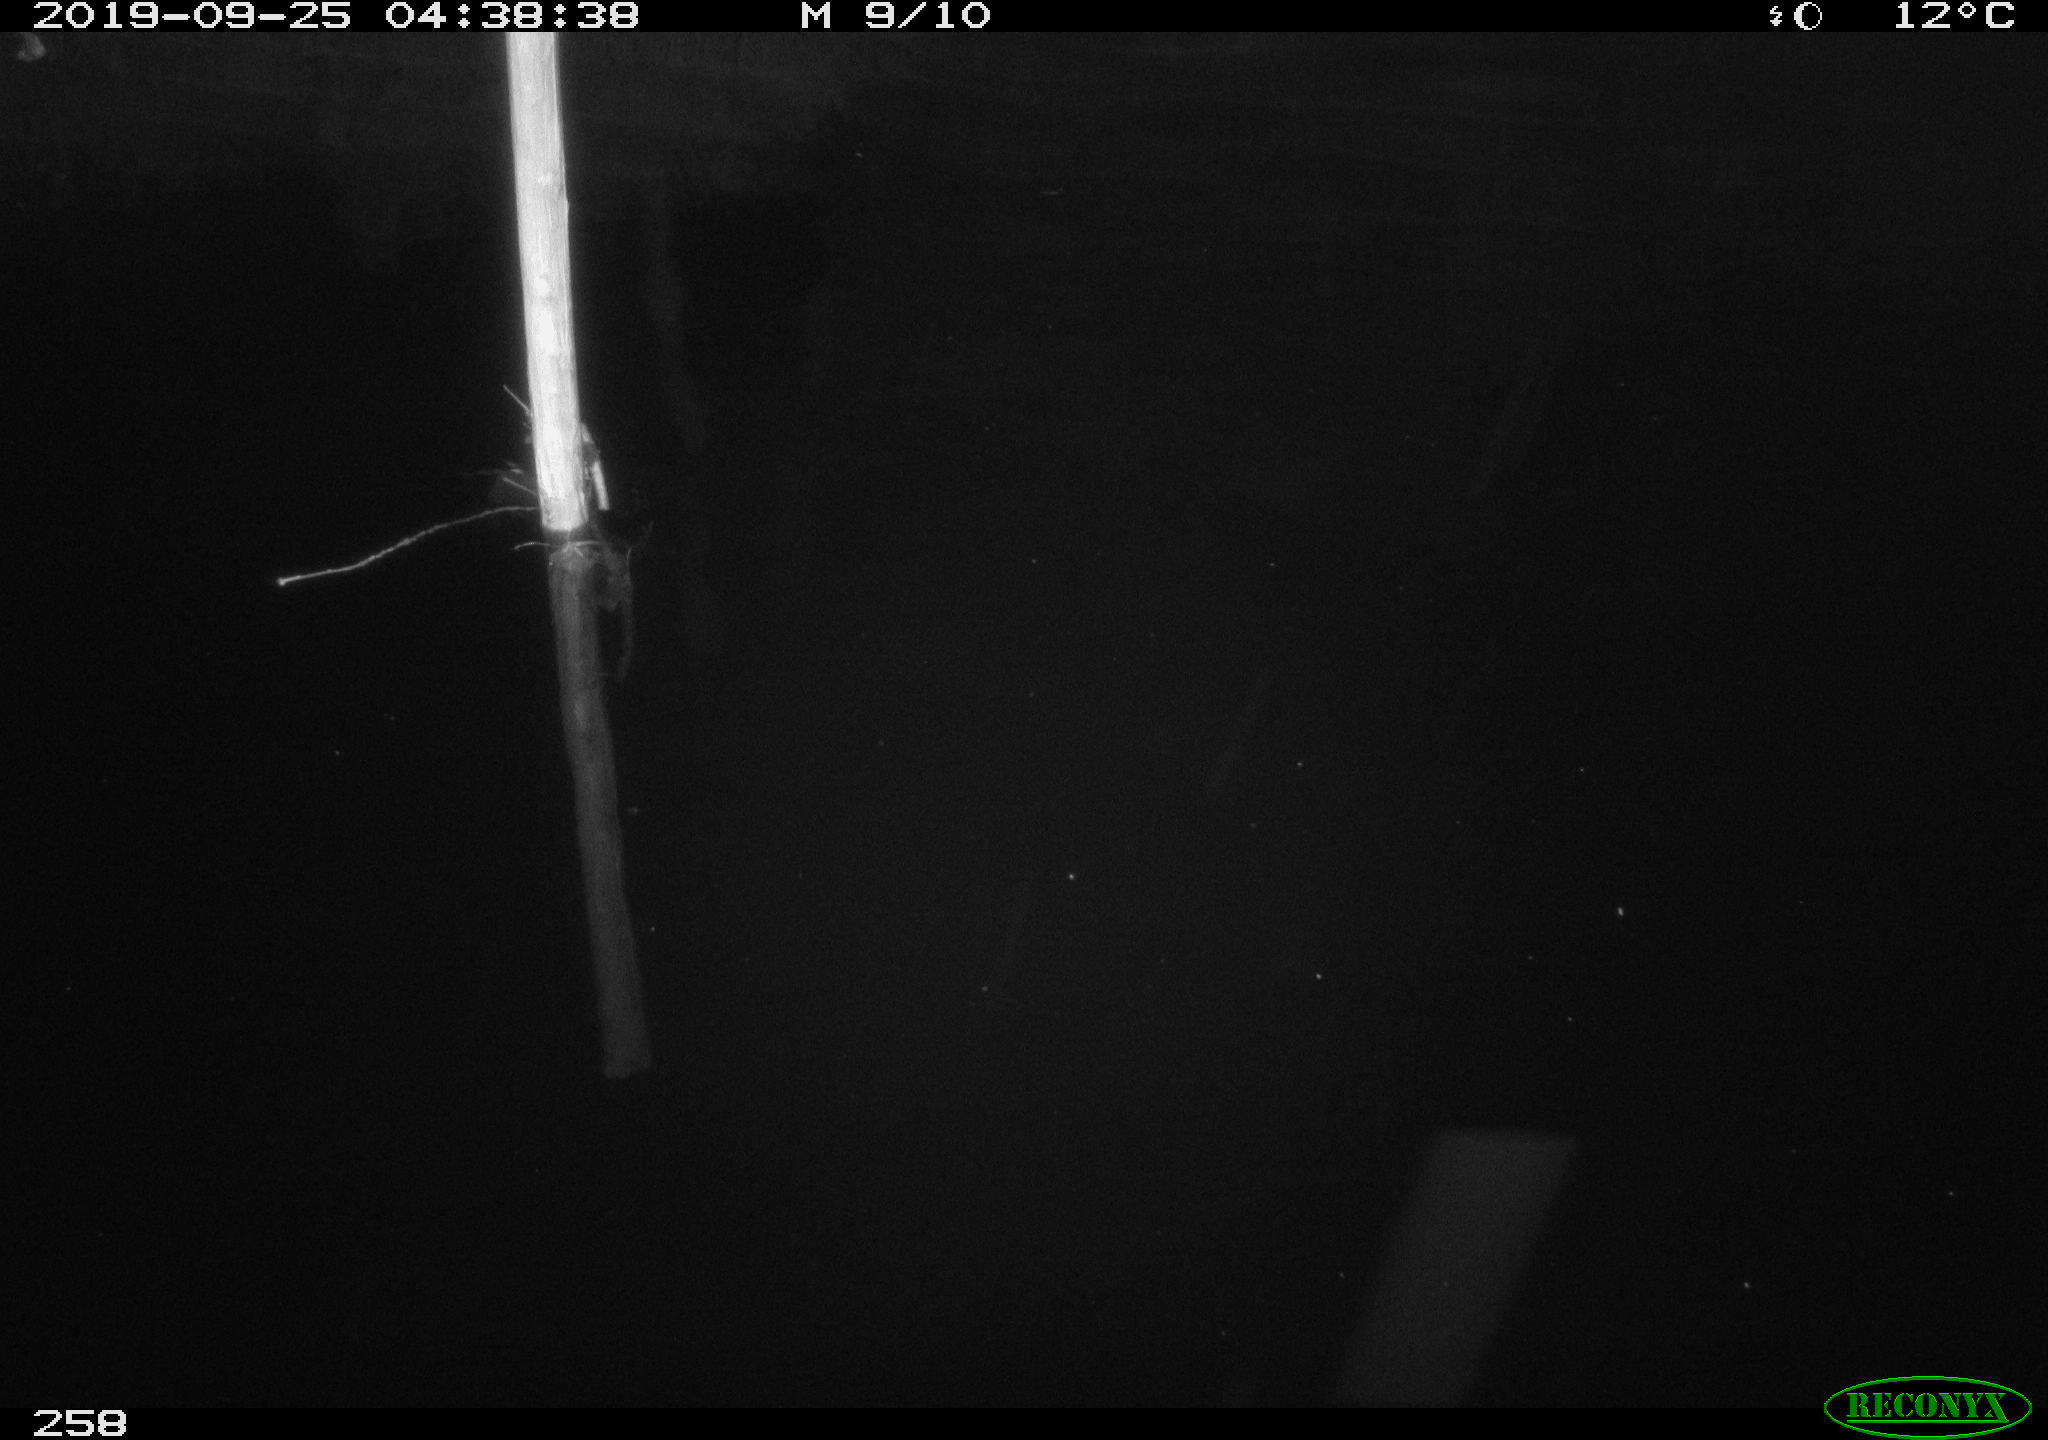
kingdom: Animalia
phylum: Chordata
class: Aves
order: Anseriformes
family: Anatidae
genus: Anas
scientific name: Anas platyrhynchos
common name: Mallard
